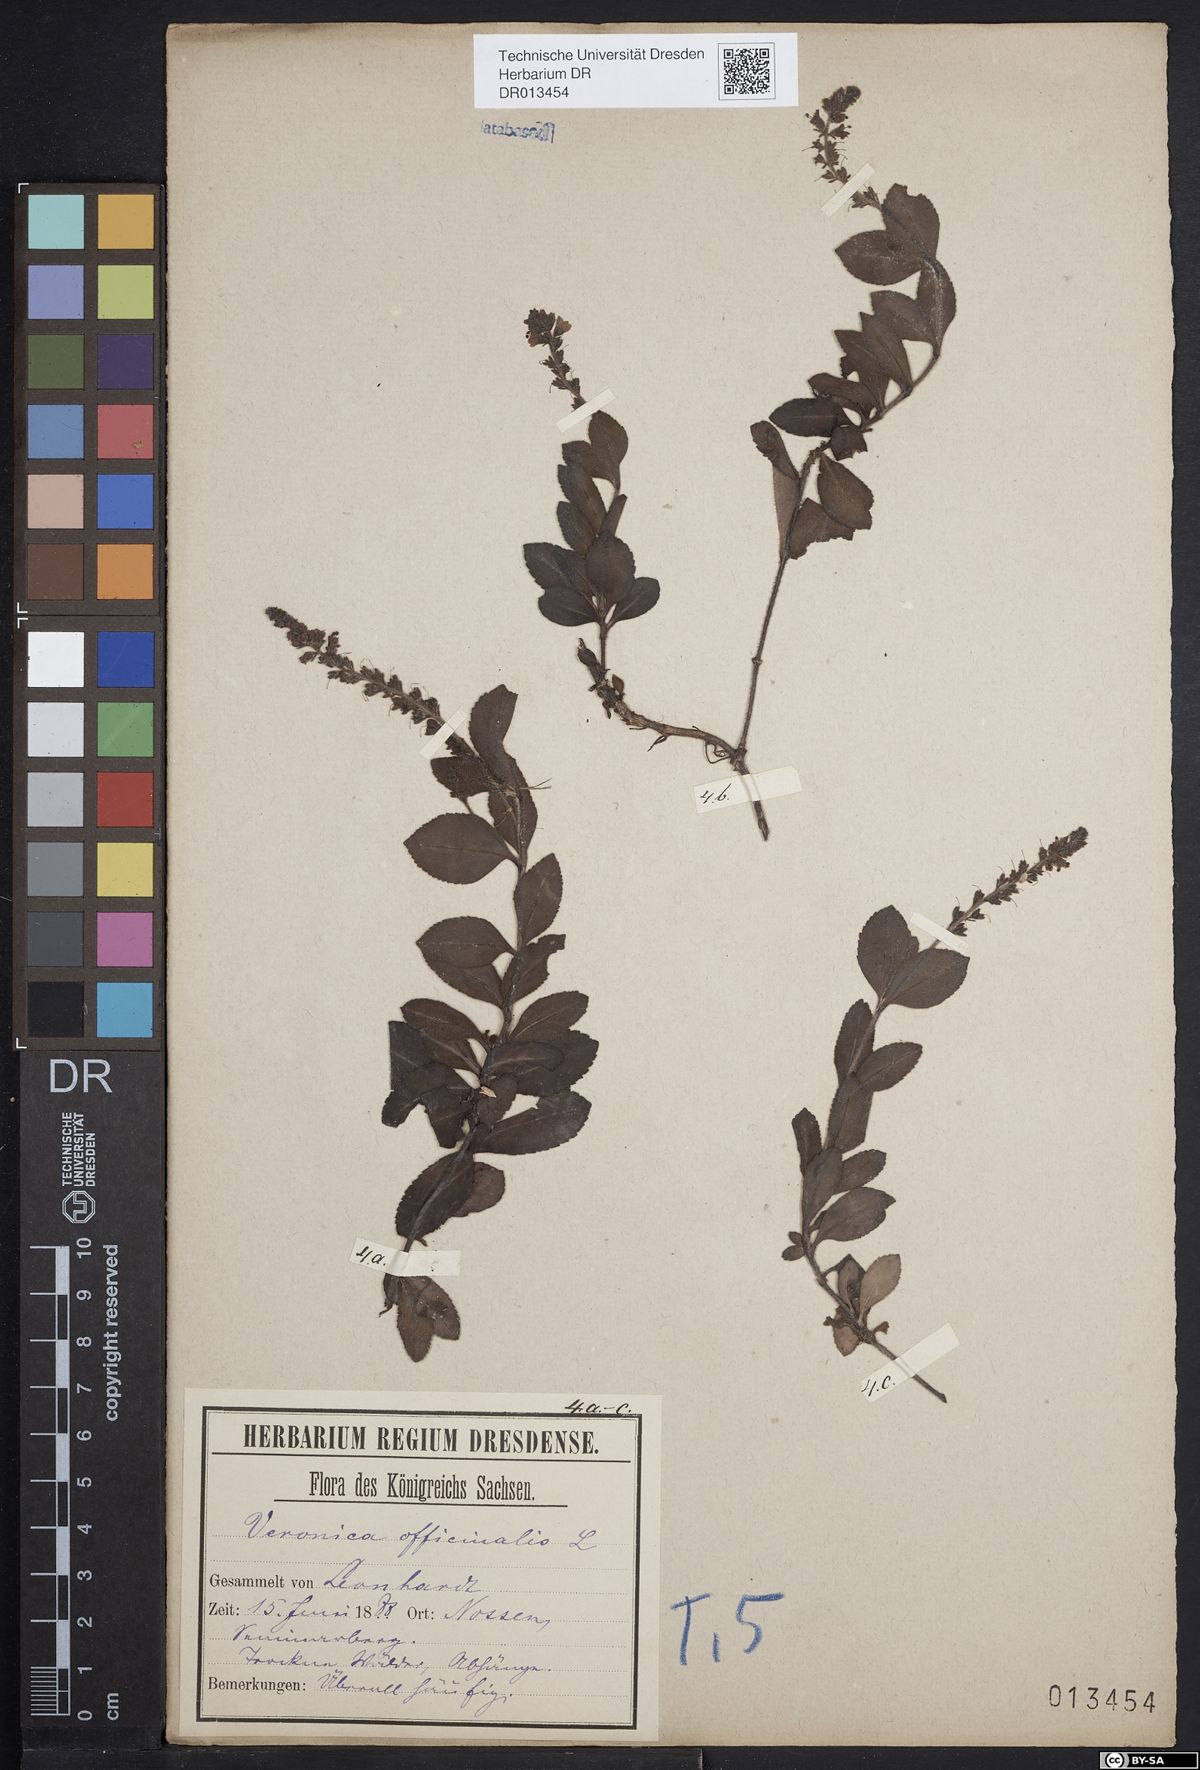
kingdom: Plantae
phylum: Tracheophyta
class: Magnoliopsida
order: Lamiales
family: Plantaginaceae
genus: Veronica
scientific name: Veronica officinalis
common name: Common speedwell
